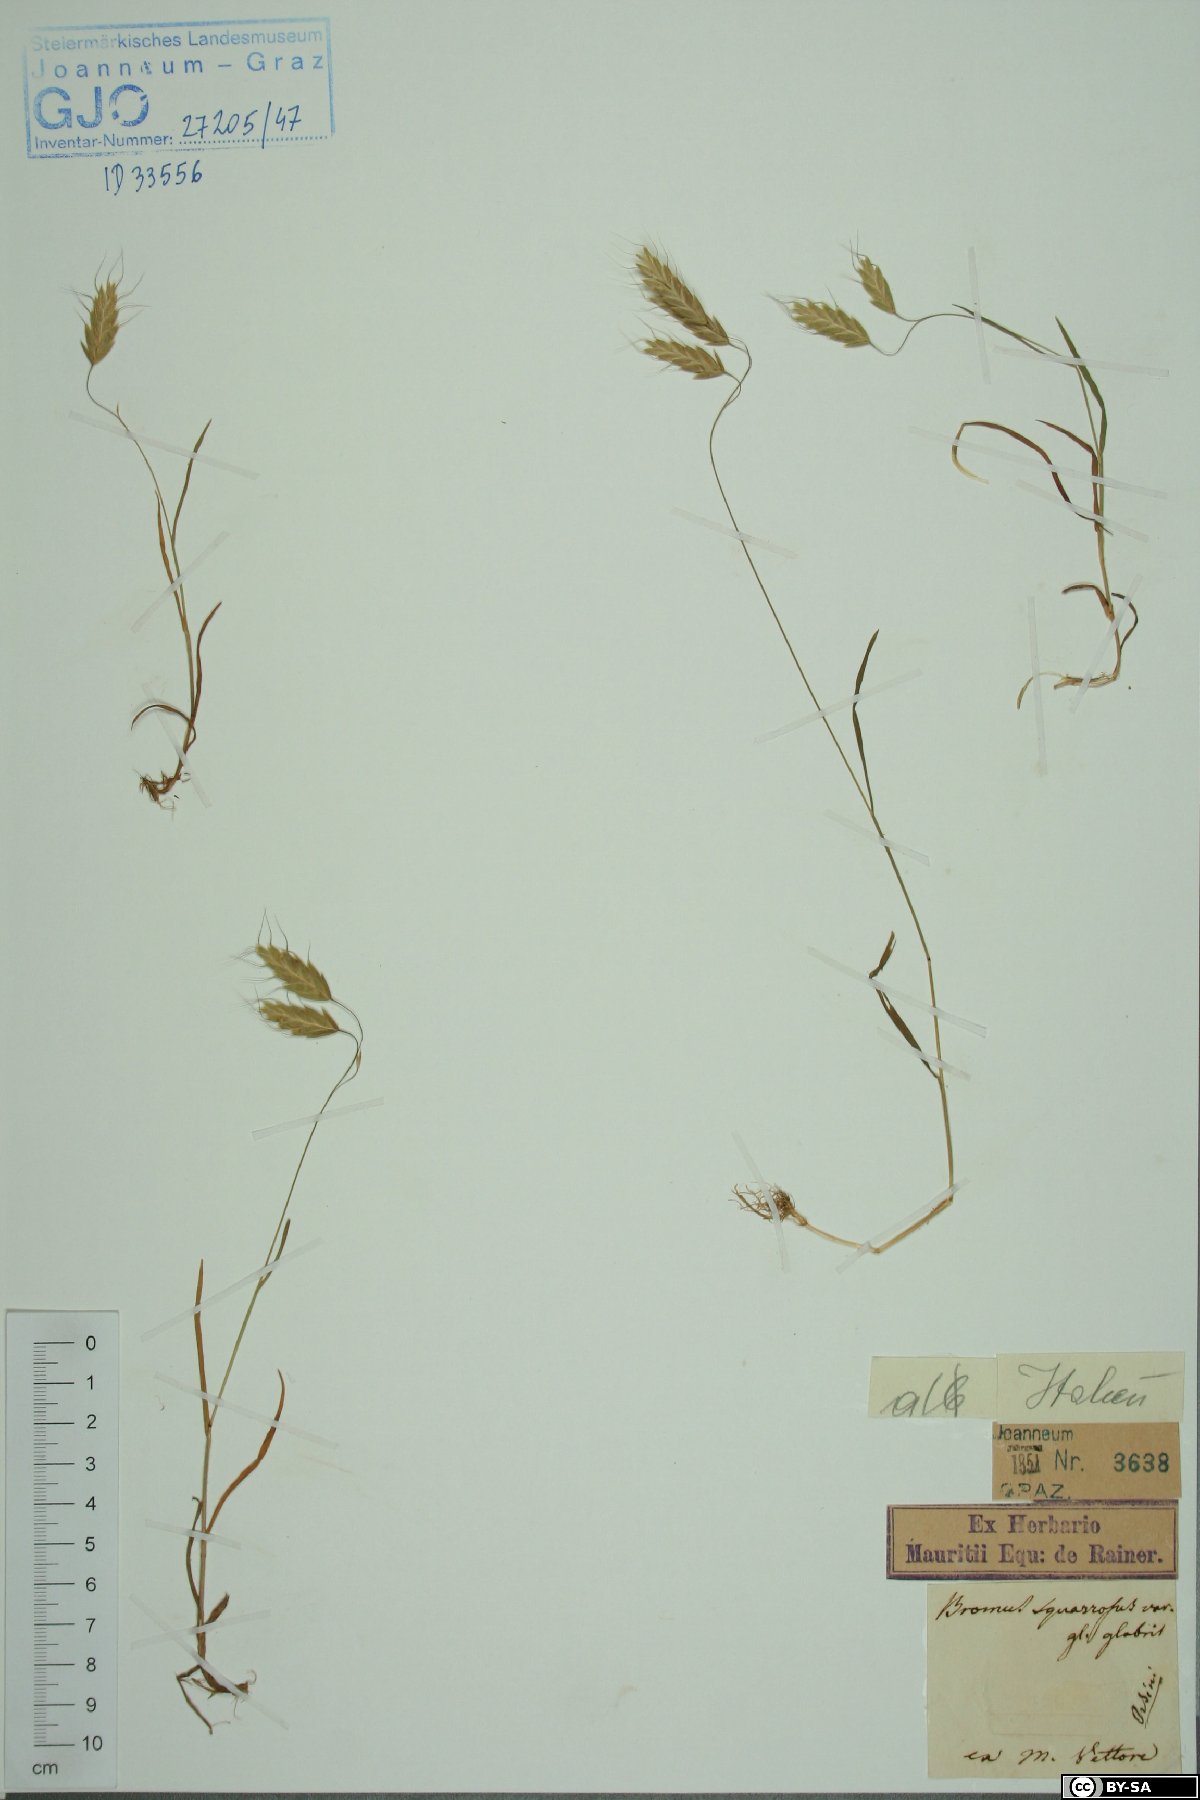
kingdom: Plantae
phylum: Tracheophyta
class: Liliopsida
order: Poales
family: Poaceae
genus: Bromus
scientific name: Bromus squarrosus
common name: Corn brome
